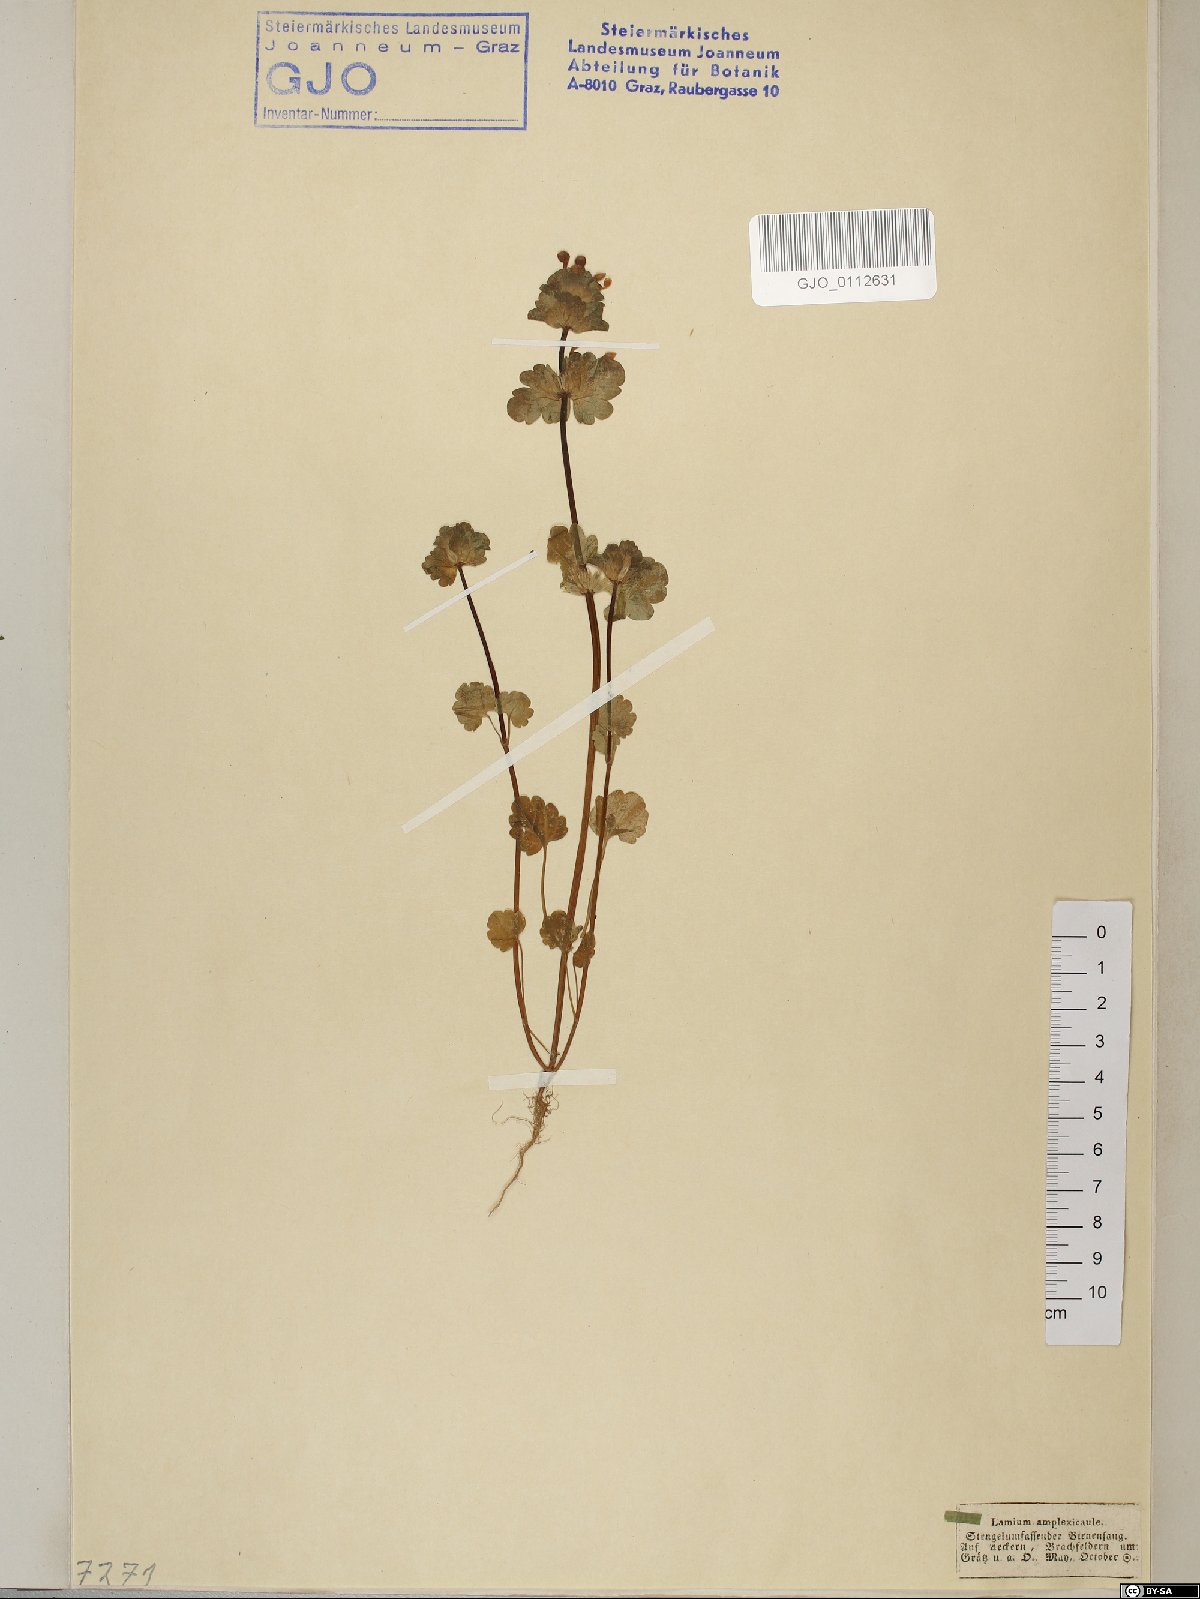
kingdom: Plantae
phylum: Tracheophyta
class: Magnoliopsida
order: Lamiales
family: Lamiaceae
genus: Lamium
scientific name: Lamium amplexicaule
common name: Henbit dead-nettle
